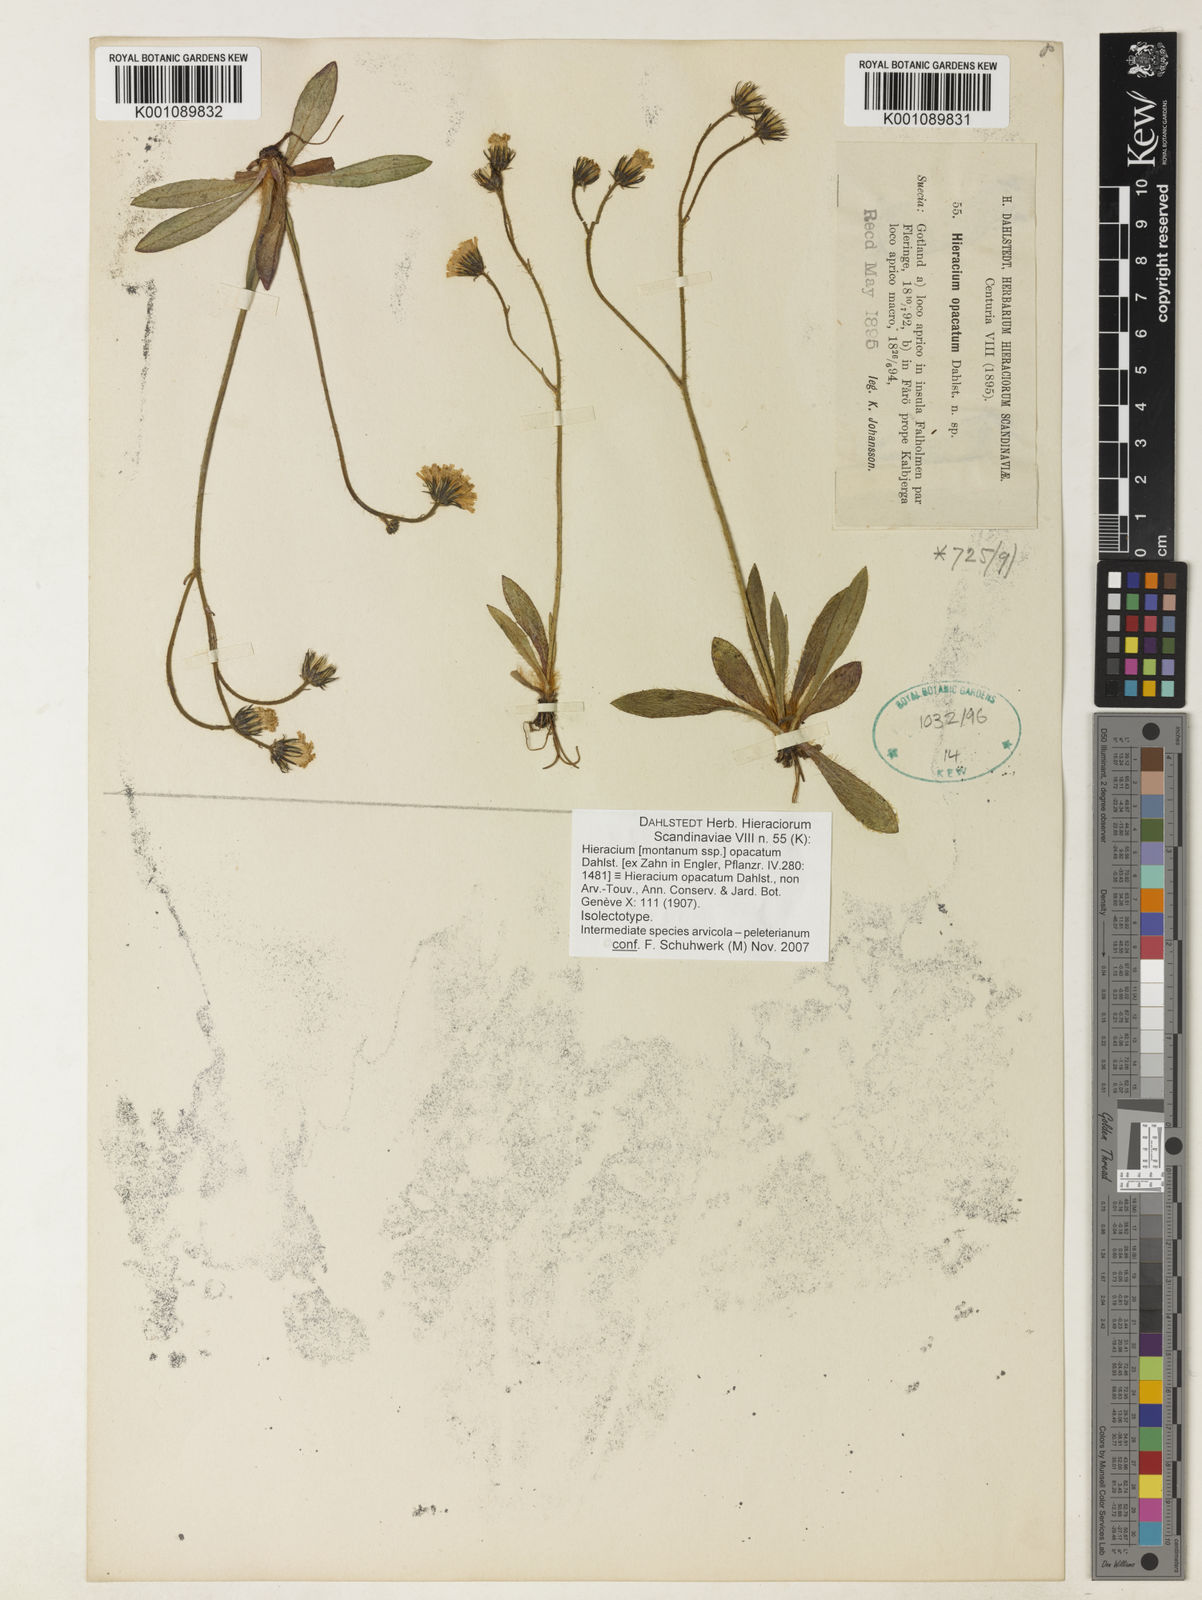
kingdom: Plantae
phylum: Tracheophyta
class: Magnoliopsida
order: Asterales
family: Asteraceae
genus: Hieracium
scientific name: Hieracium
